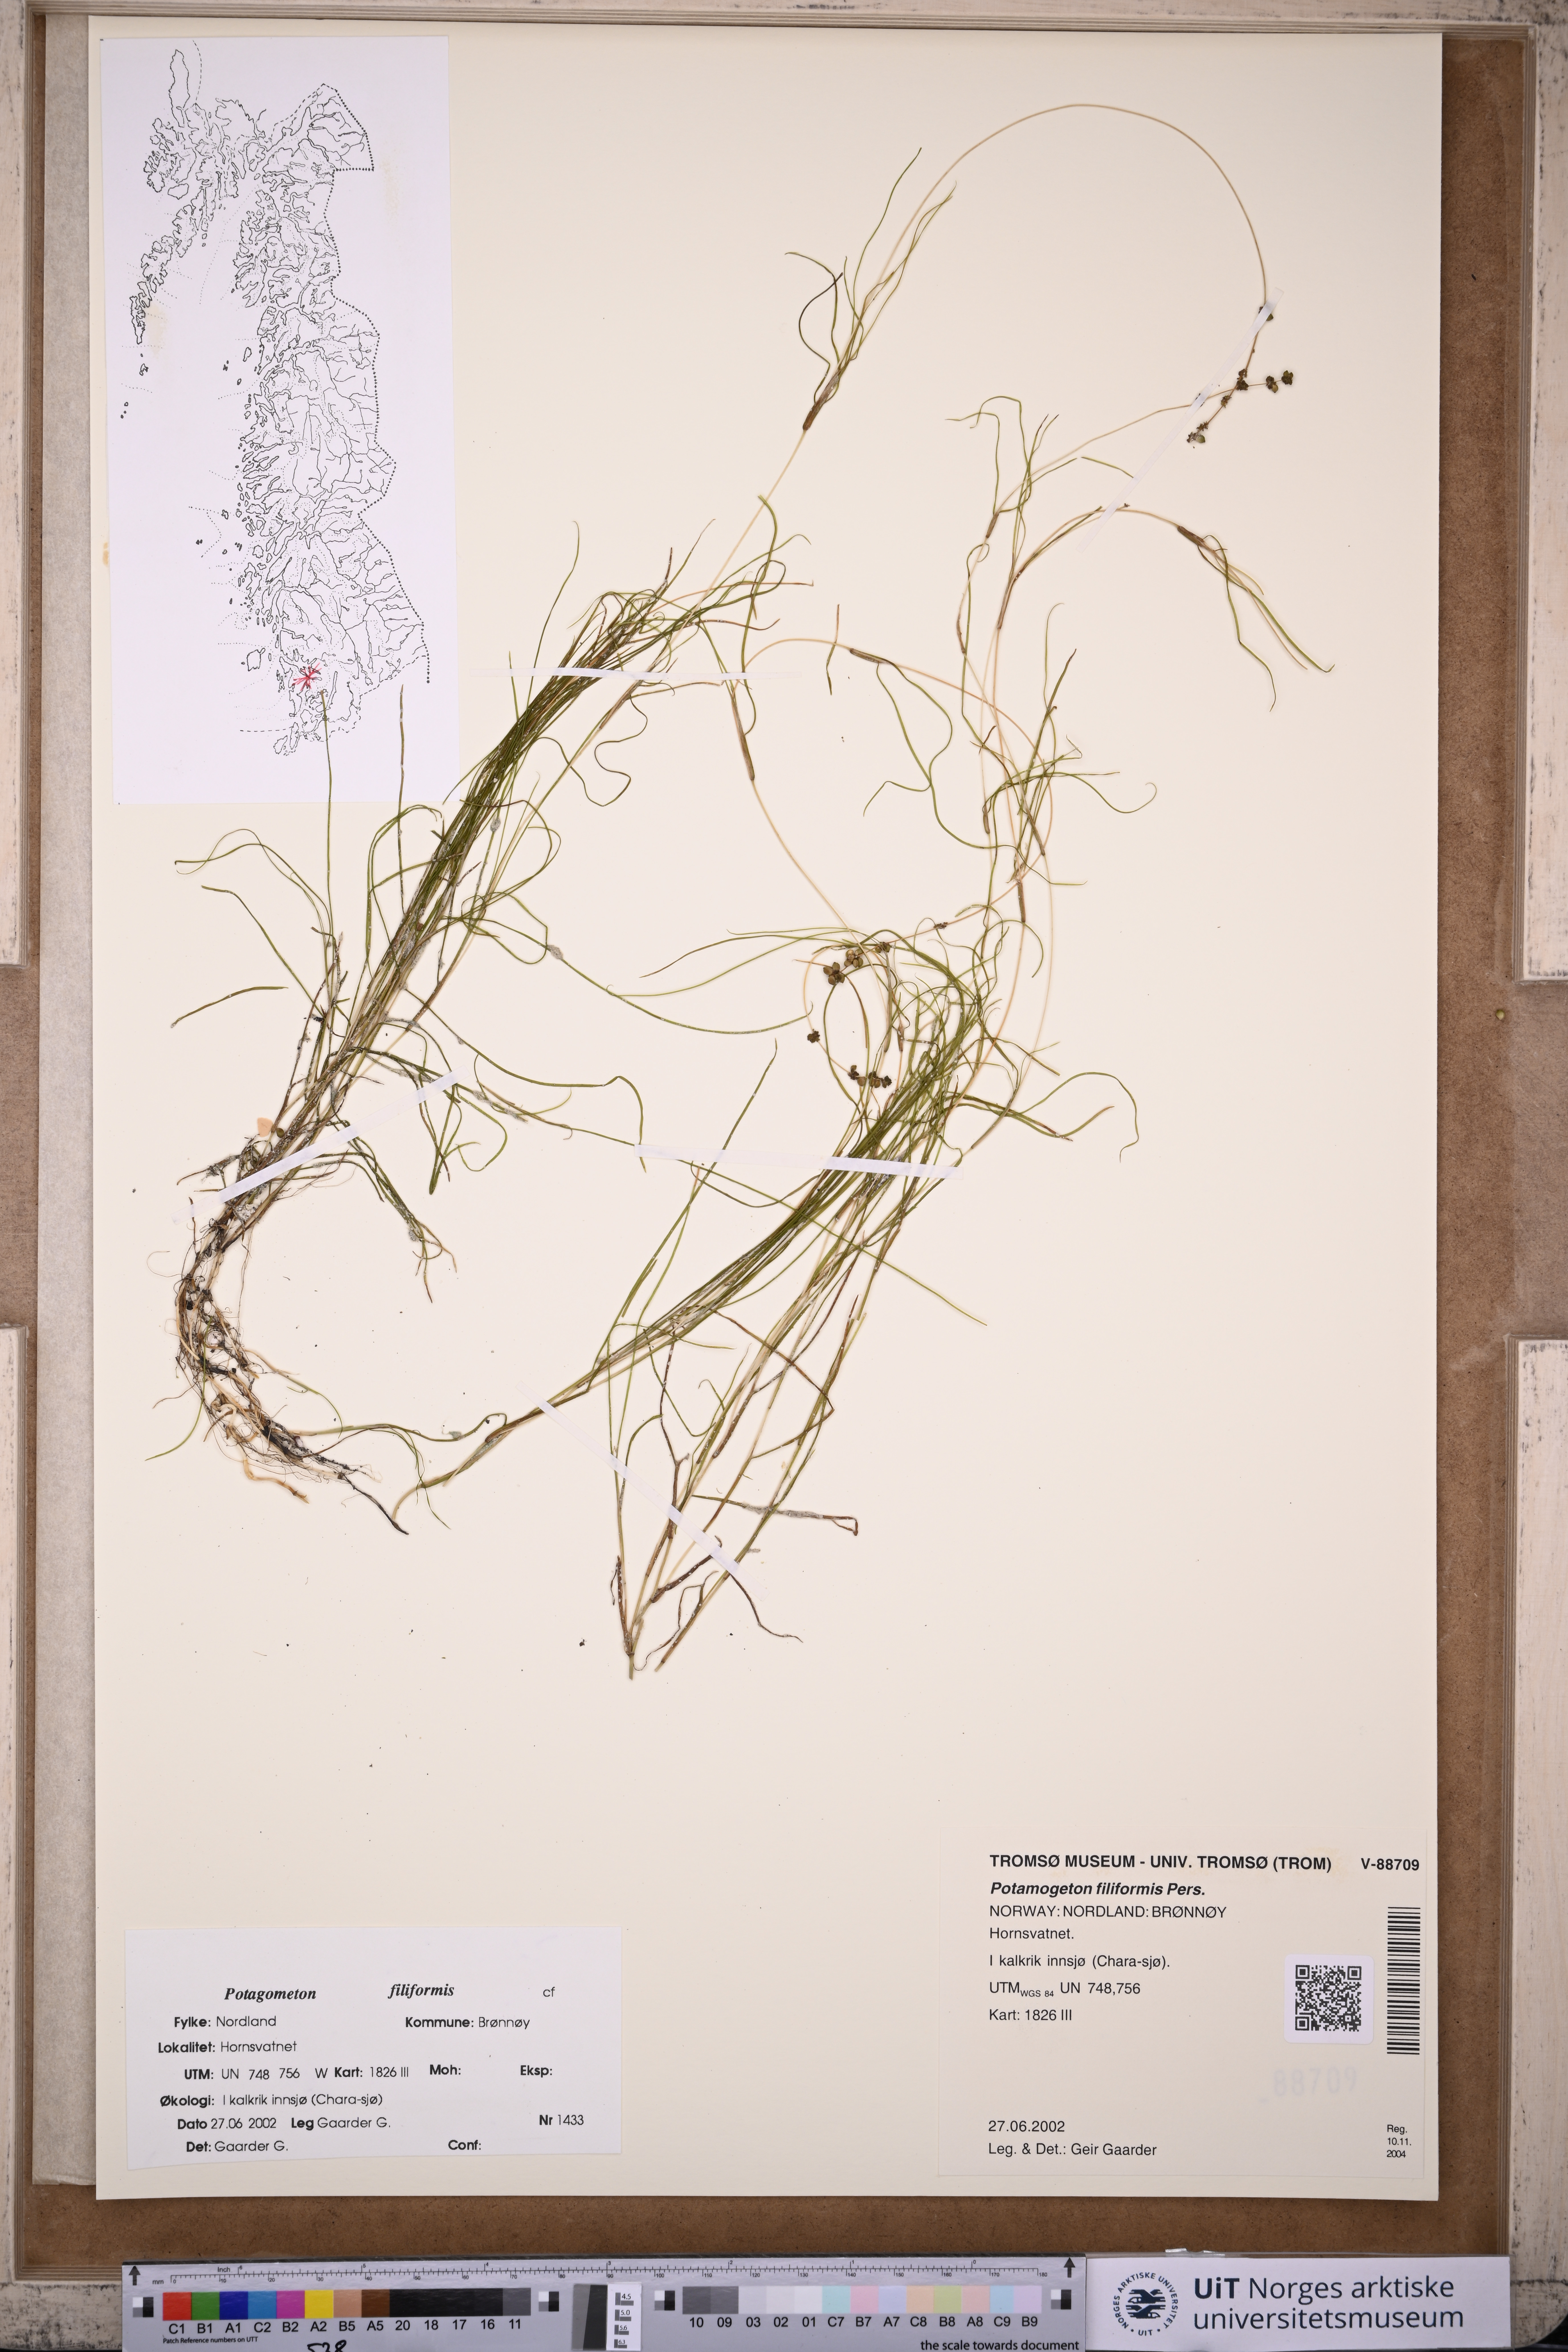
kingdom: Plantae
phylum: Tracheophyta
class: Liliopsida
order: Alismatales
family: Potamogetonaceae
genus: Stuckenia
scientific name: Stuckenia filiformis
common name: Alpine thread-leaved pondweed
